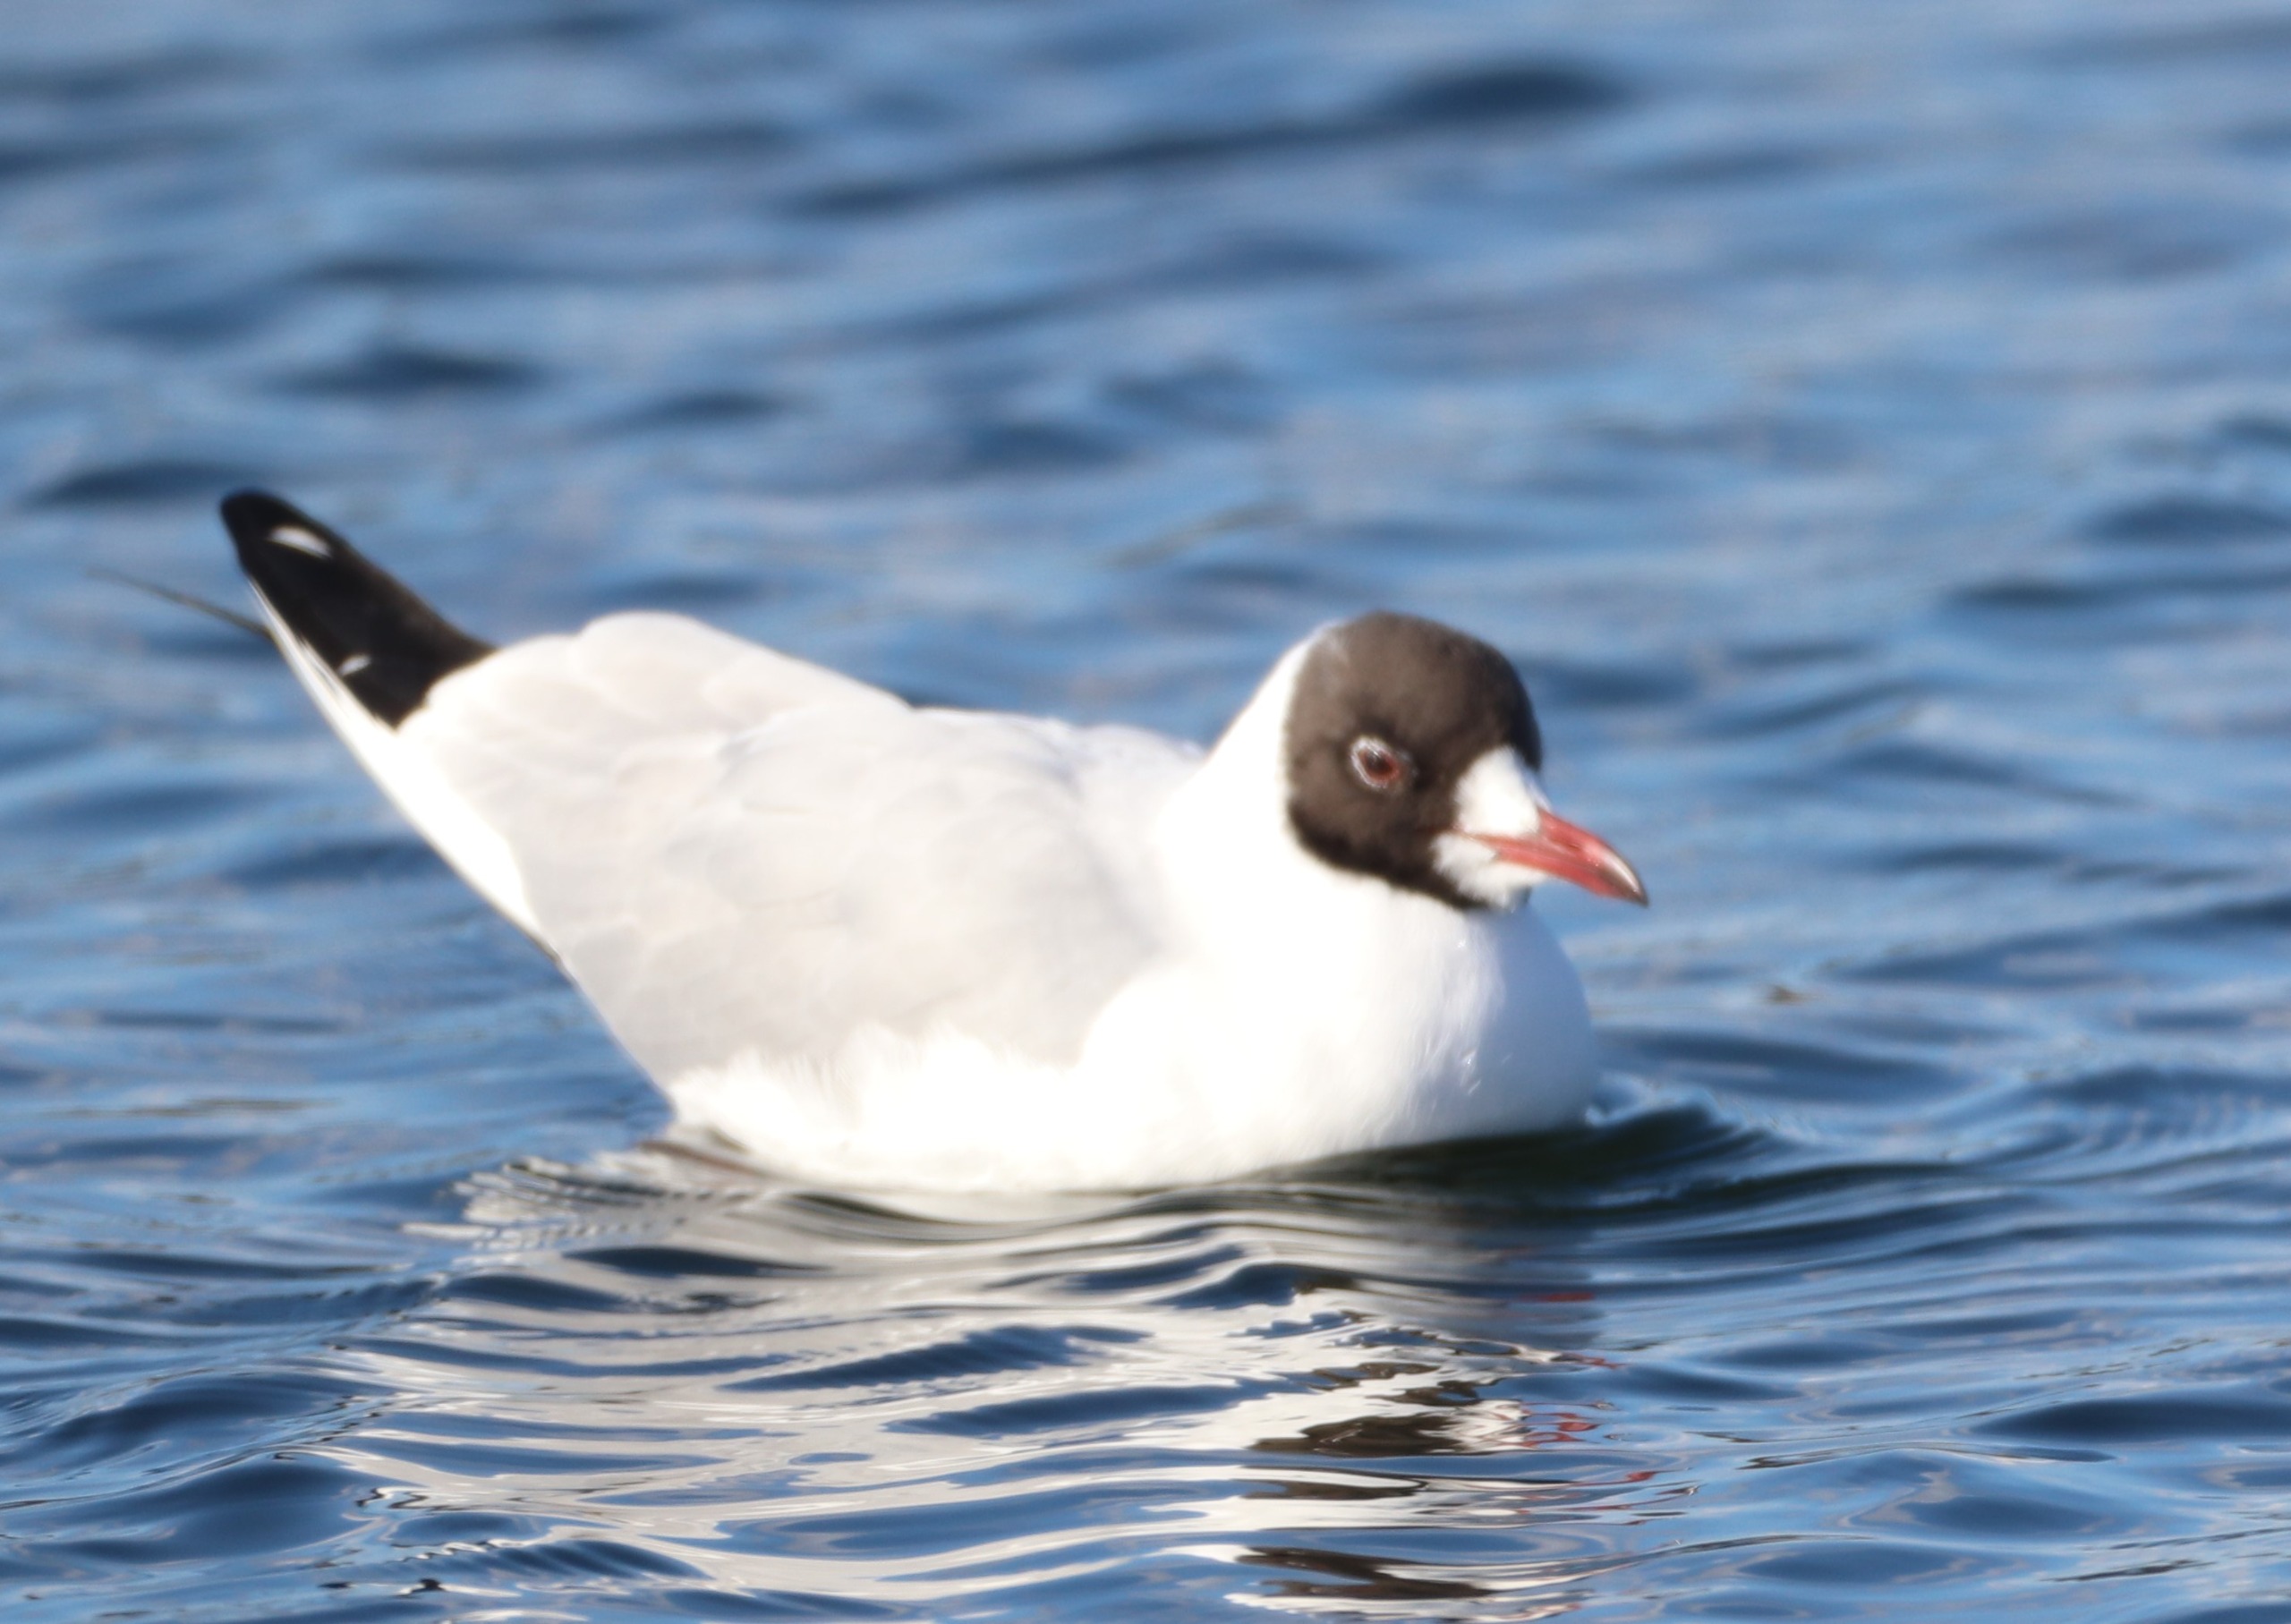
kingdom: Animalia
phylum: Chordata
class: Aves
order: Charadriiformes
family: Laridae
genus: Chroicocephalus
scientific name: Chroicocephalus ridibundus
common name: Hættemåge
